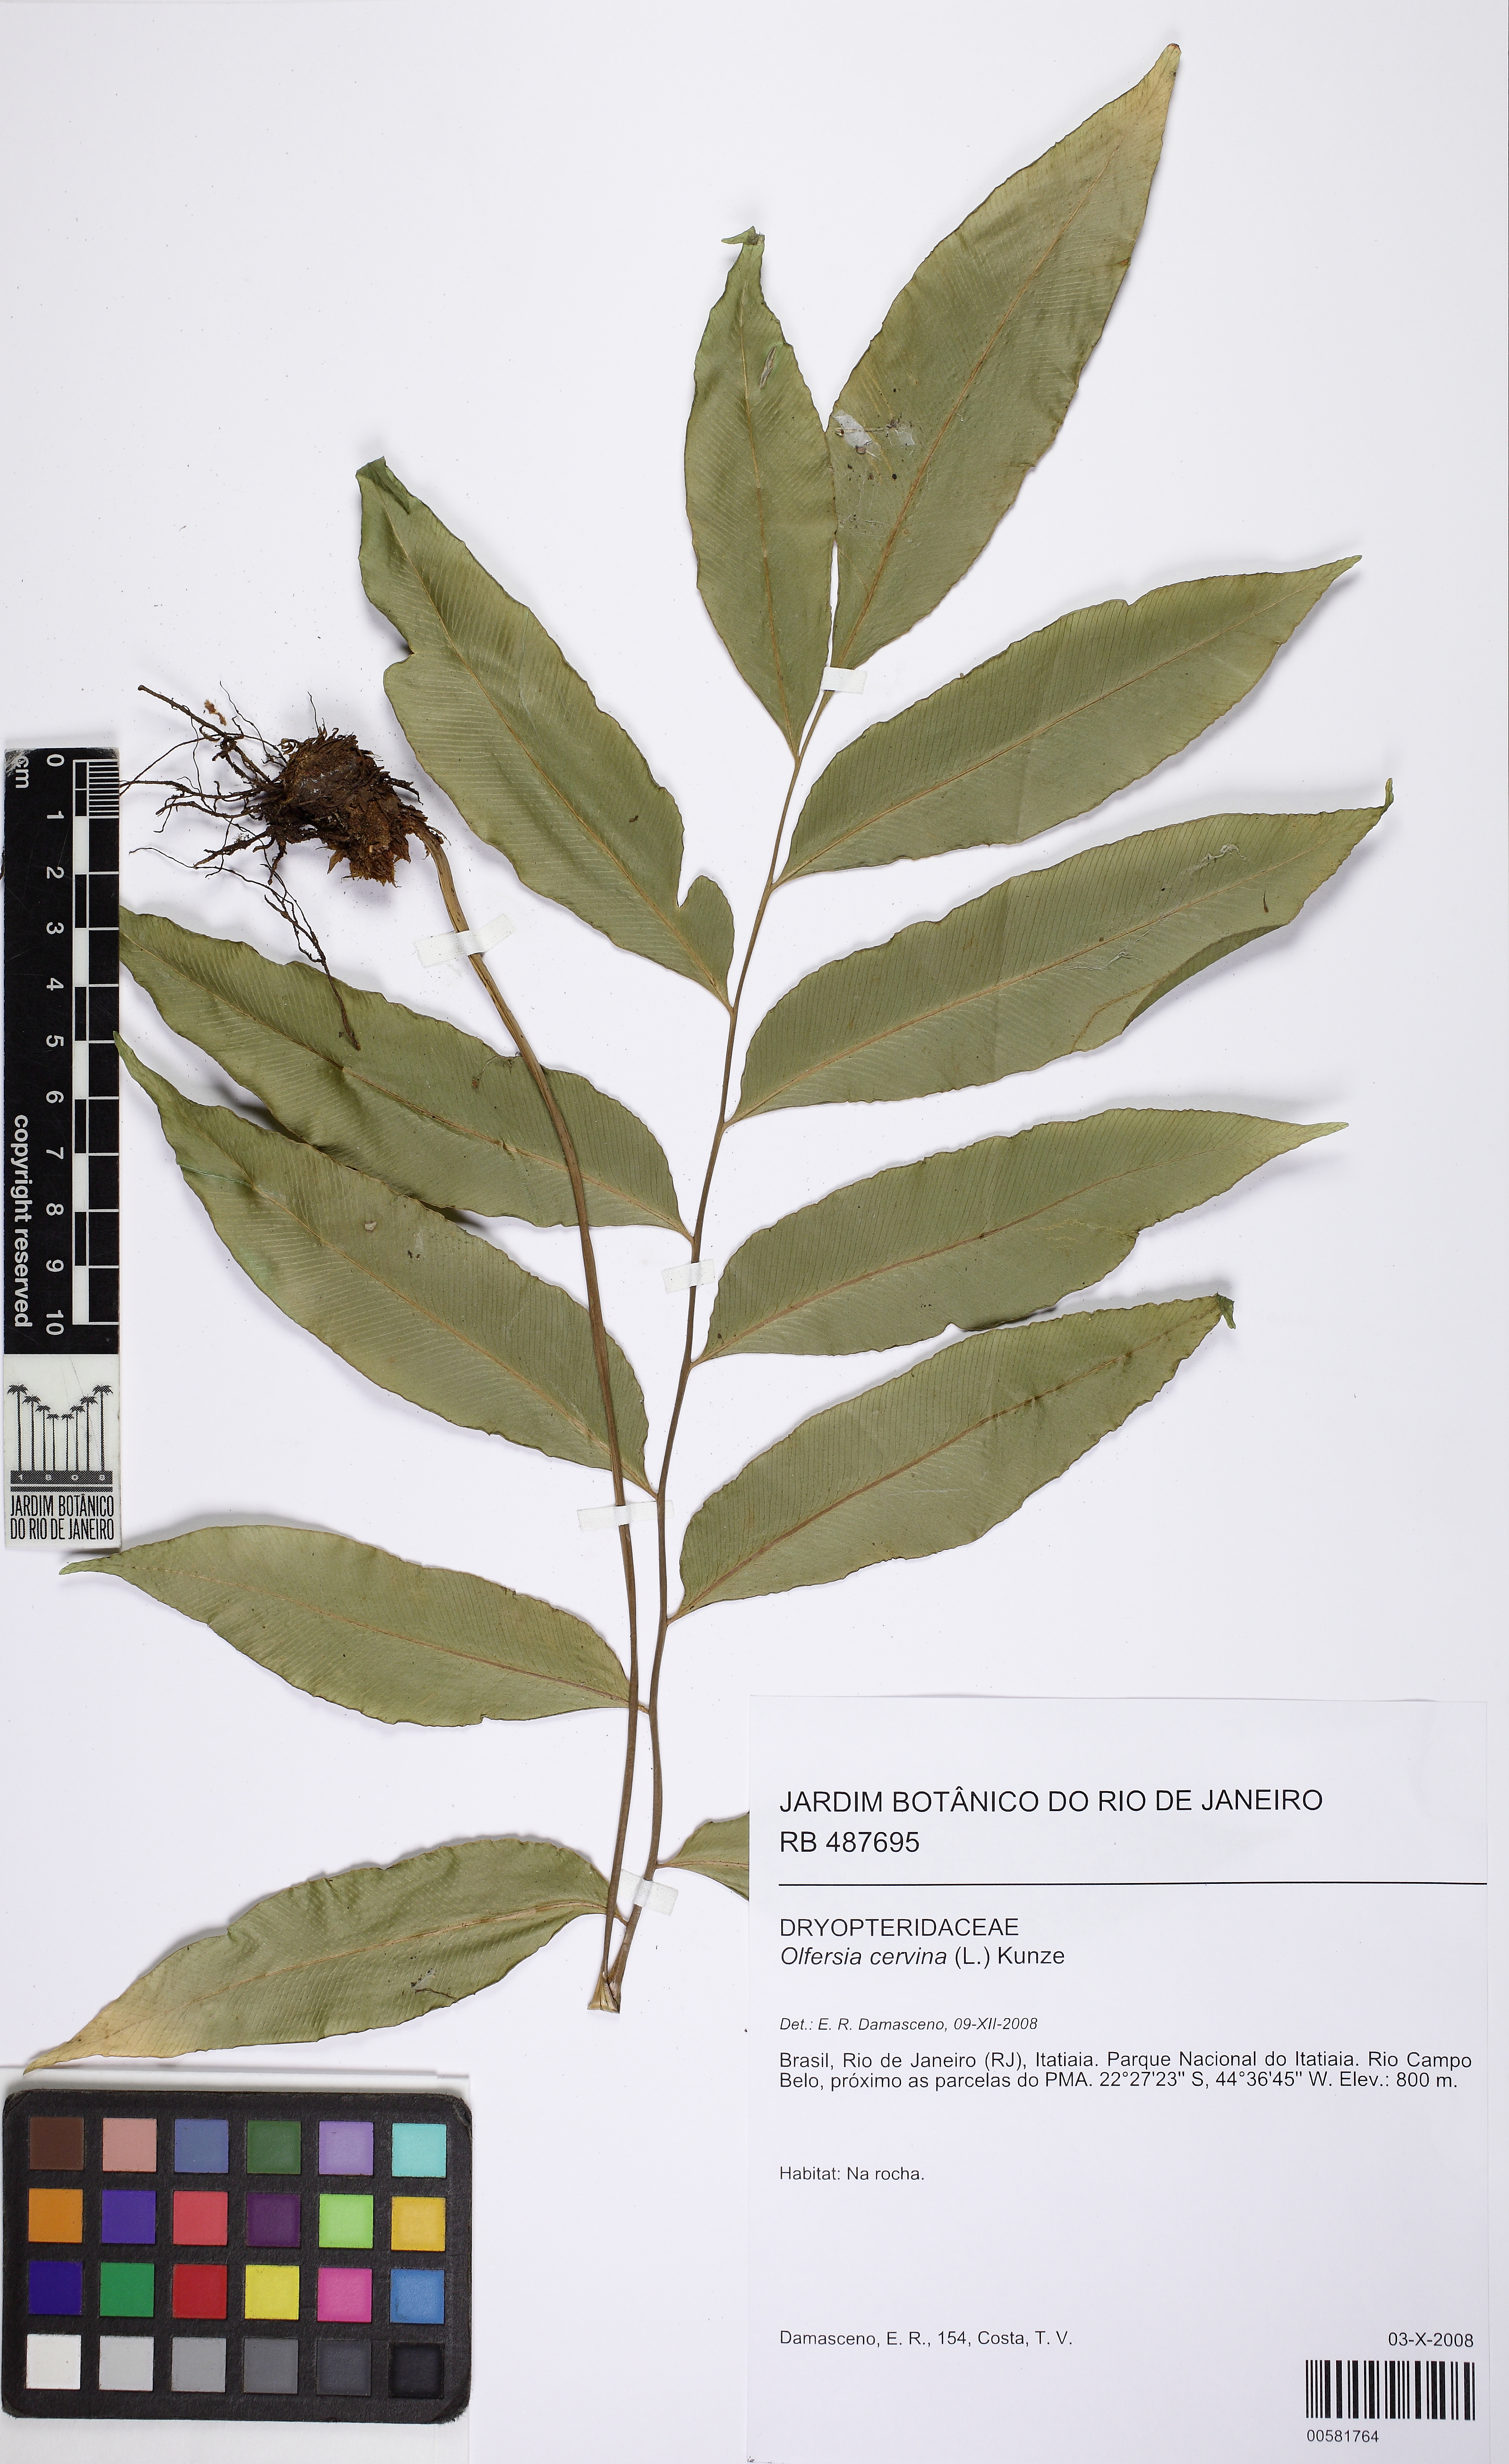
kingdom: Plantae
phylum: Tracheophyta
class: Polypodiopsida
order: Polypodiales
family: Dryopteridaceae
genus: Olfersia
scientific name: Olfersia cervina
